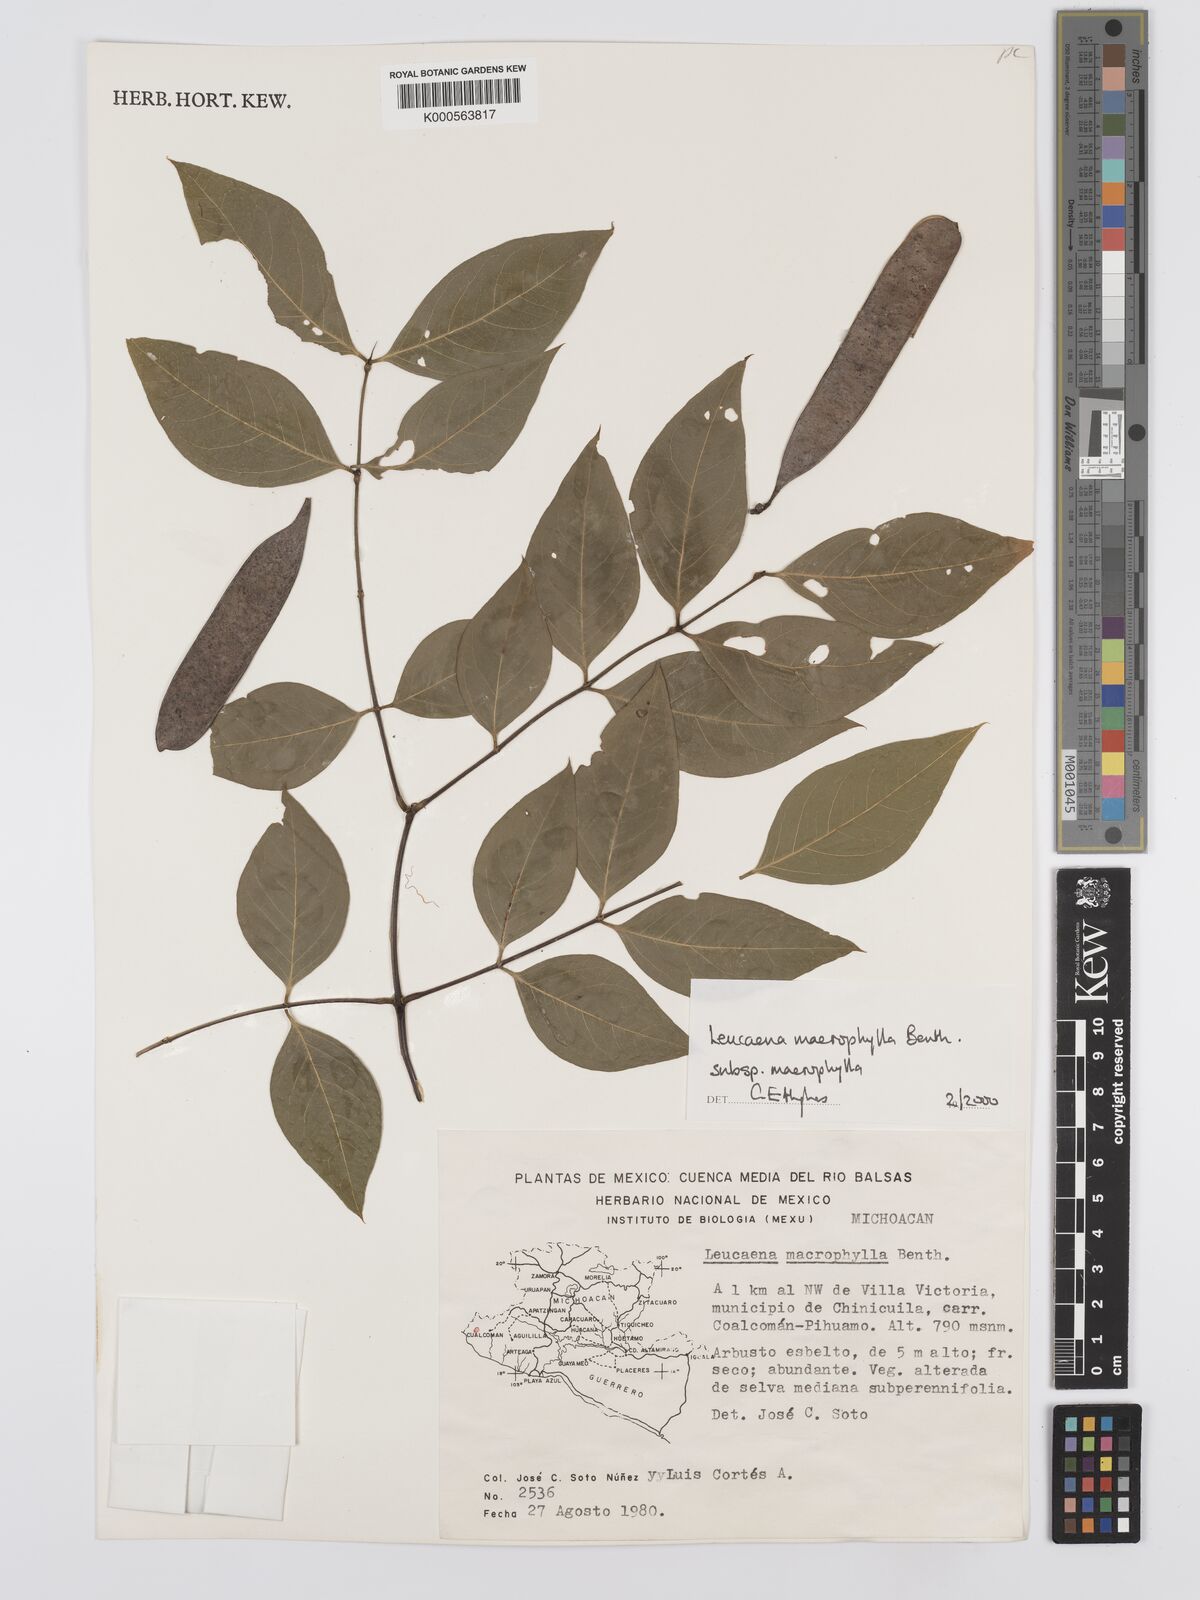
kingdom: Plantae
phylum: Tracheophyta
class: Magnoliopsida
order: Fabales
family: Fabaceae
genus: Leucaena
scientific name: Leucaena macrophylla
